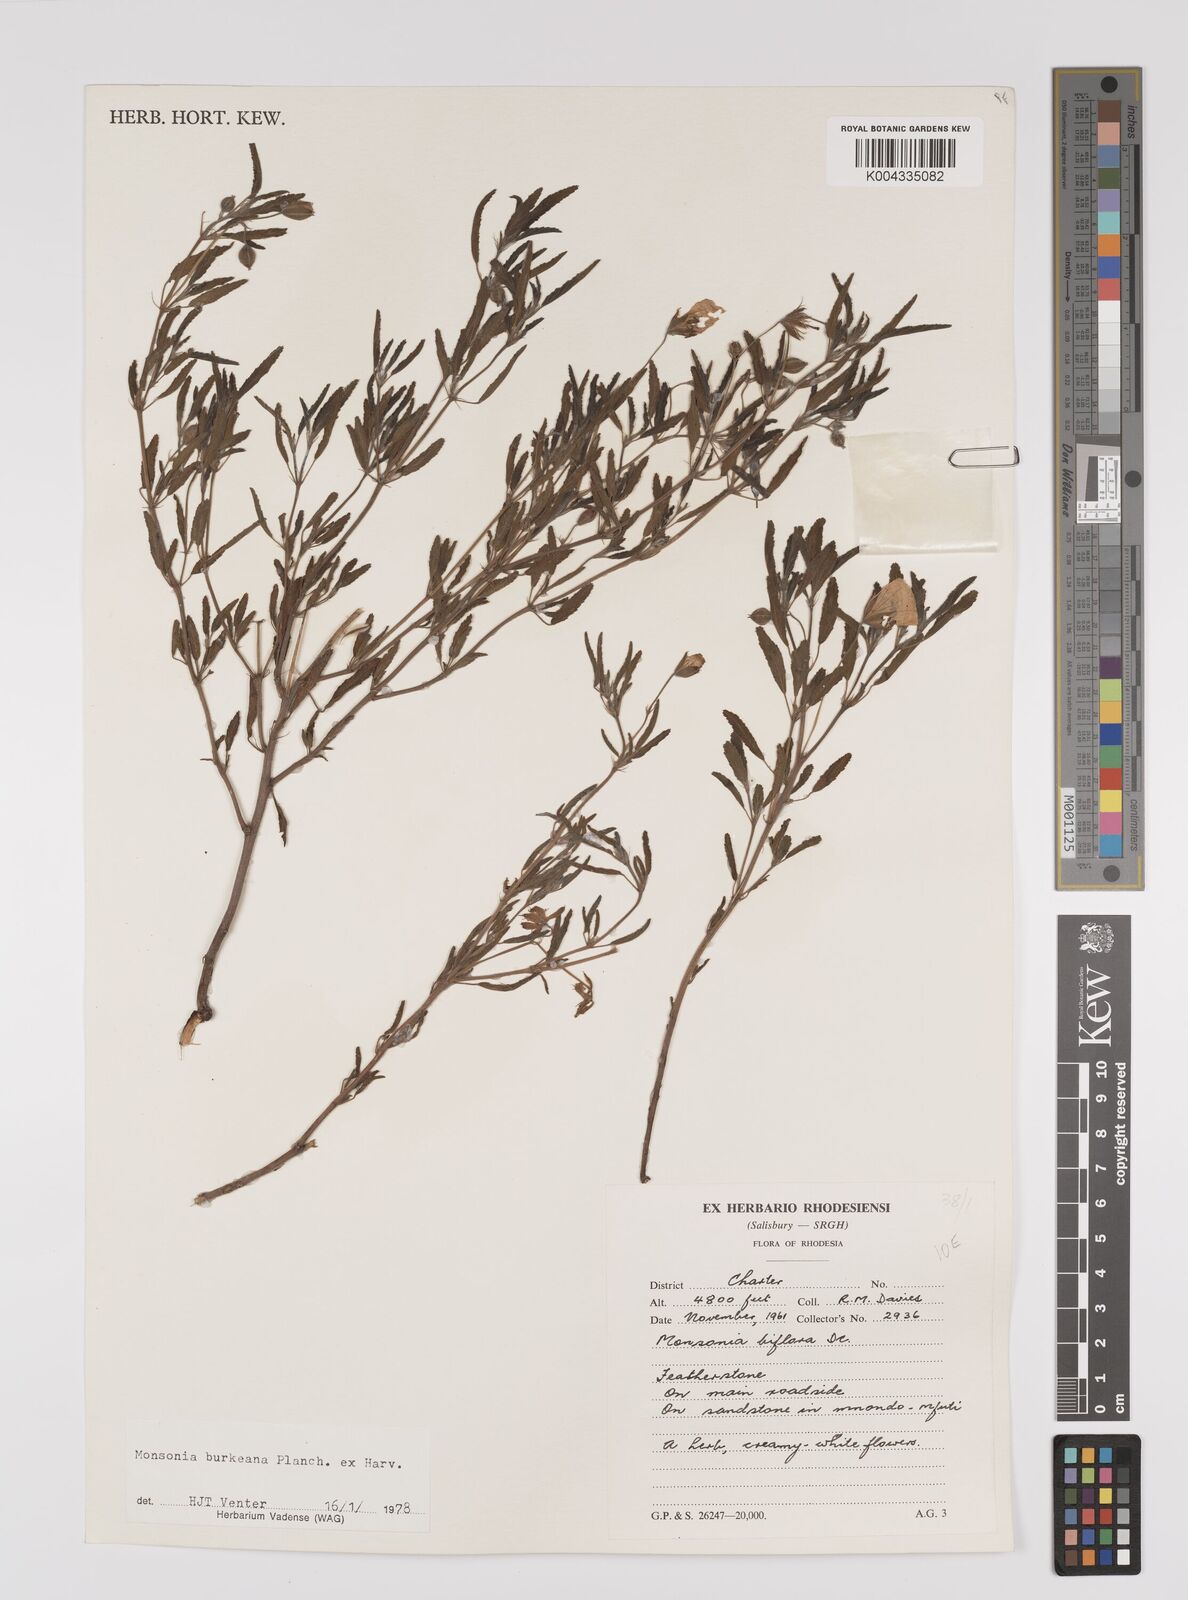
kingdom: Plantae
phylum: Tracheophyta
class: Magnoliopsida
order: Geraniales
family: Geraniaceae
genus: Monsonia
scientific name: Monsonia biflora
